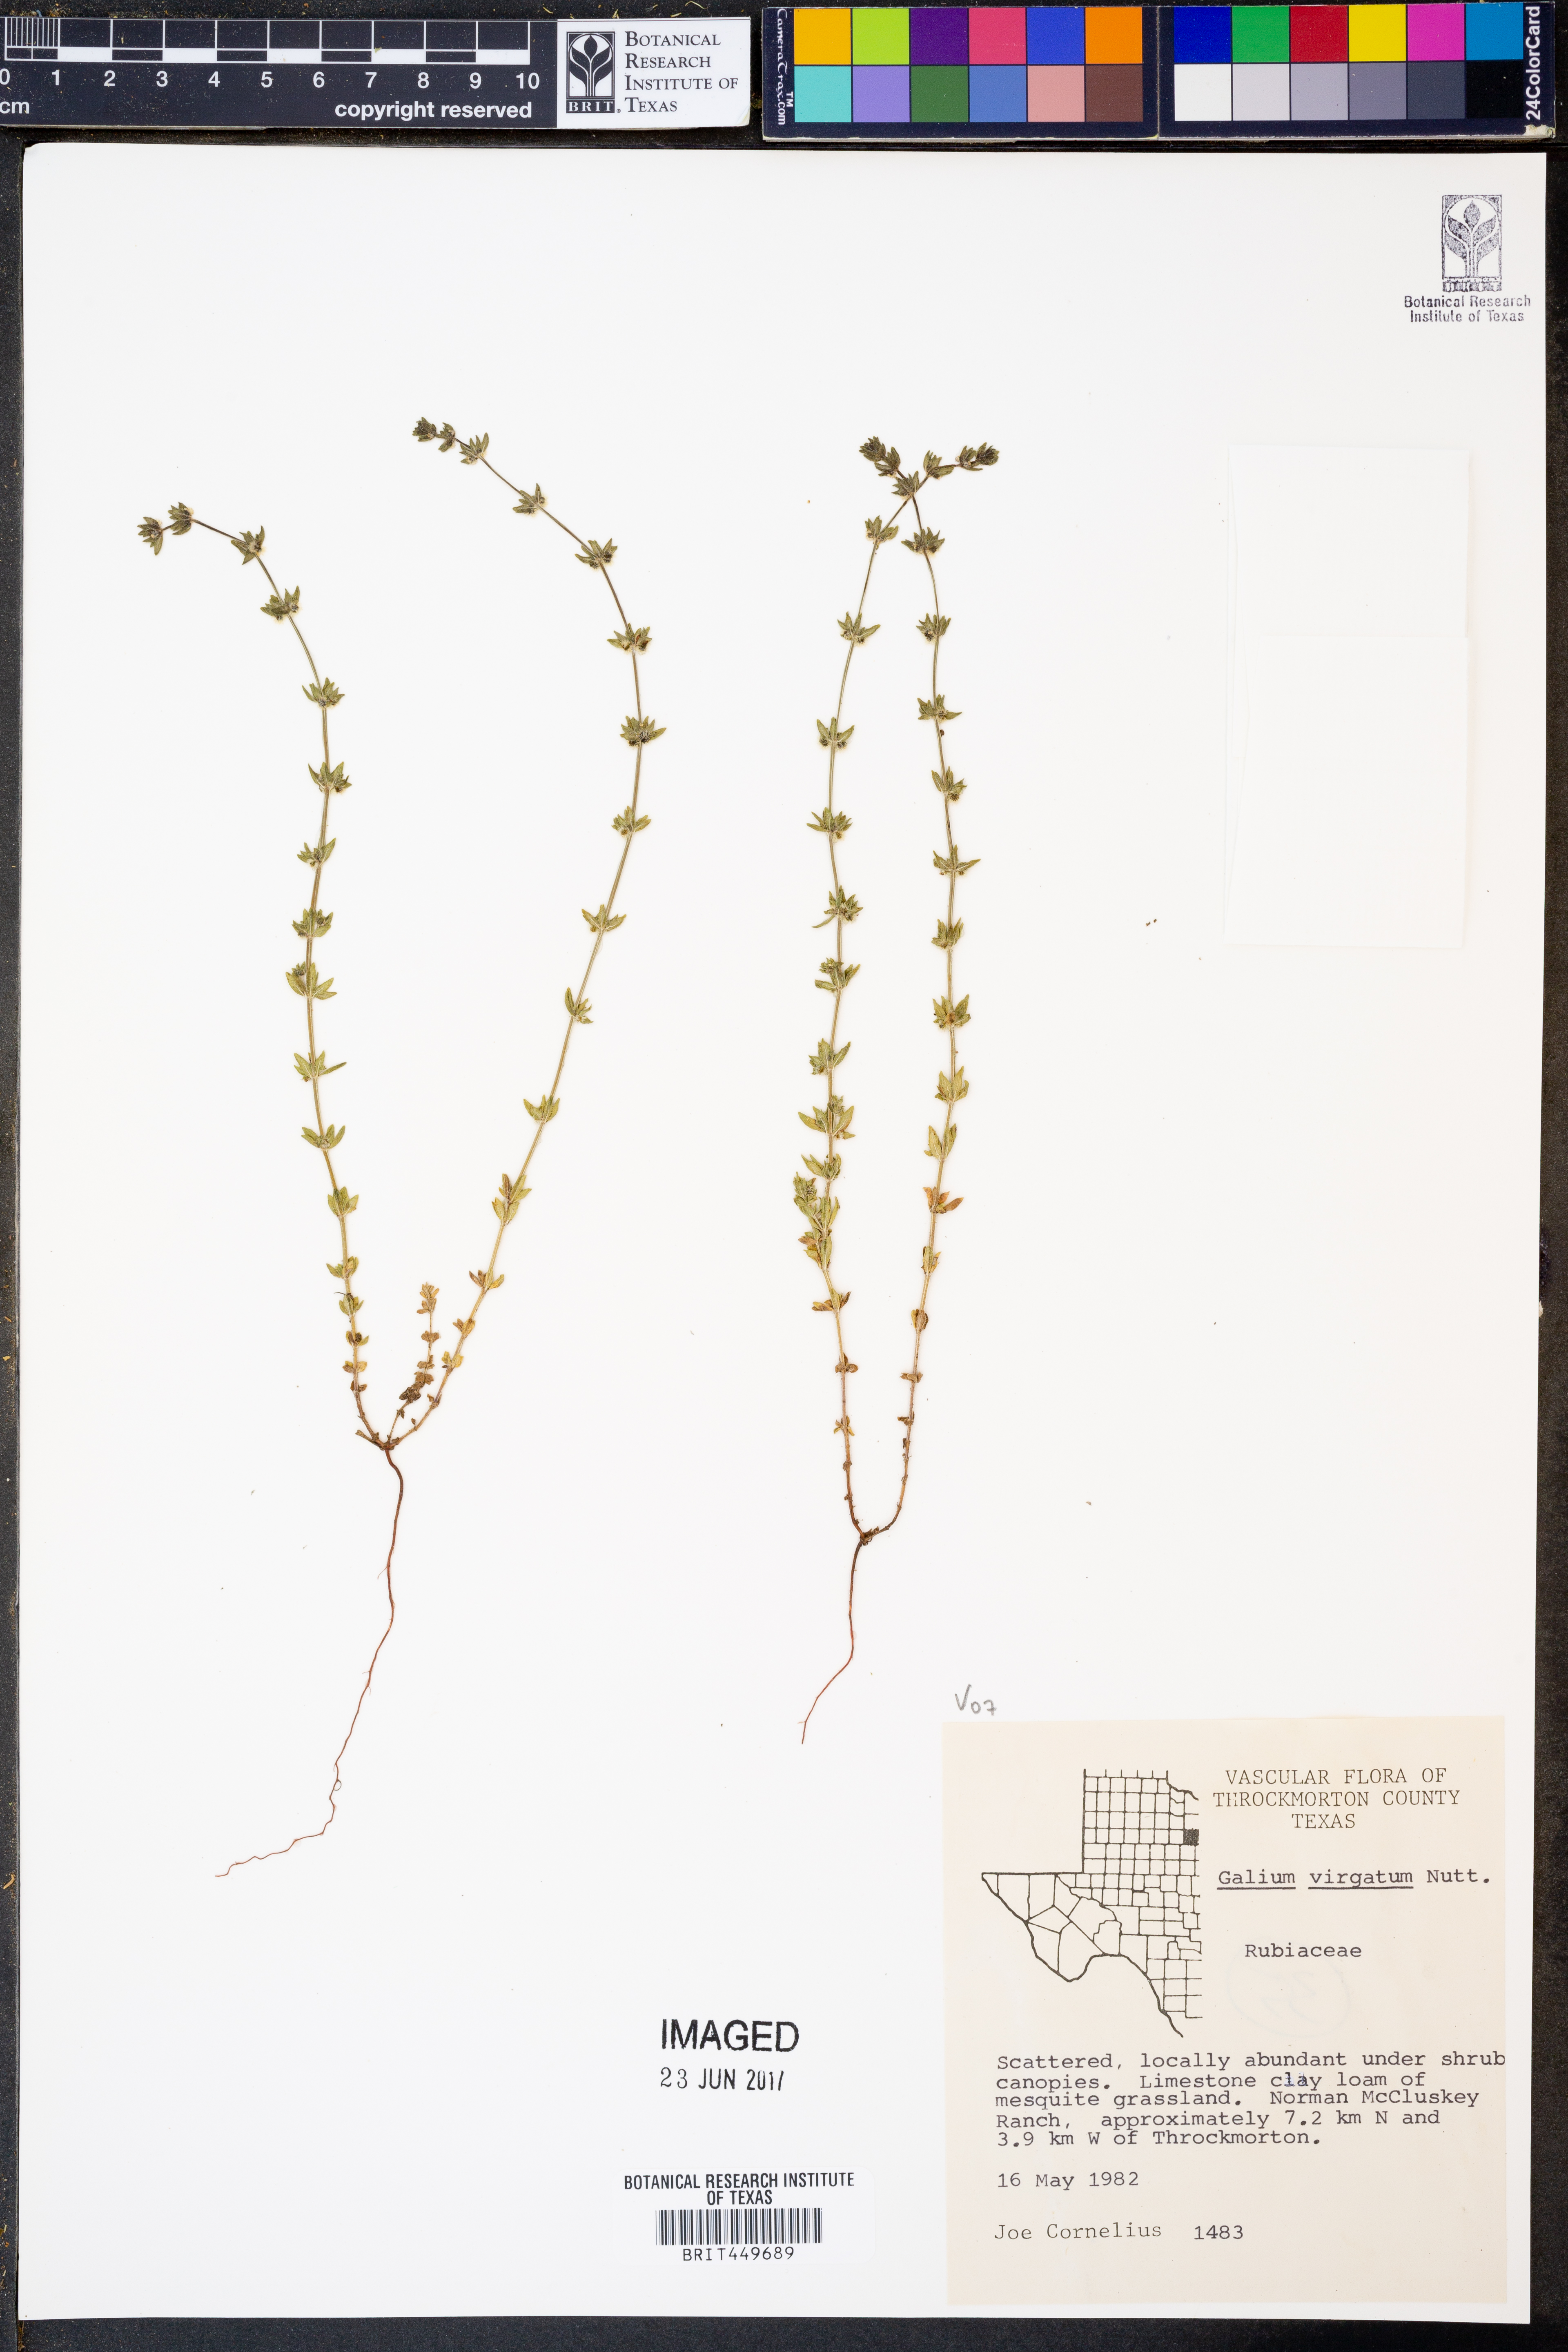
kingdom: Plantae
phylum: Tracheophyta
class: Magnoliopsida
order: Gentianales
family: Rubiaceae
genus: Galium
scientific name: Galium virgatum
